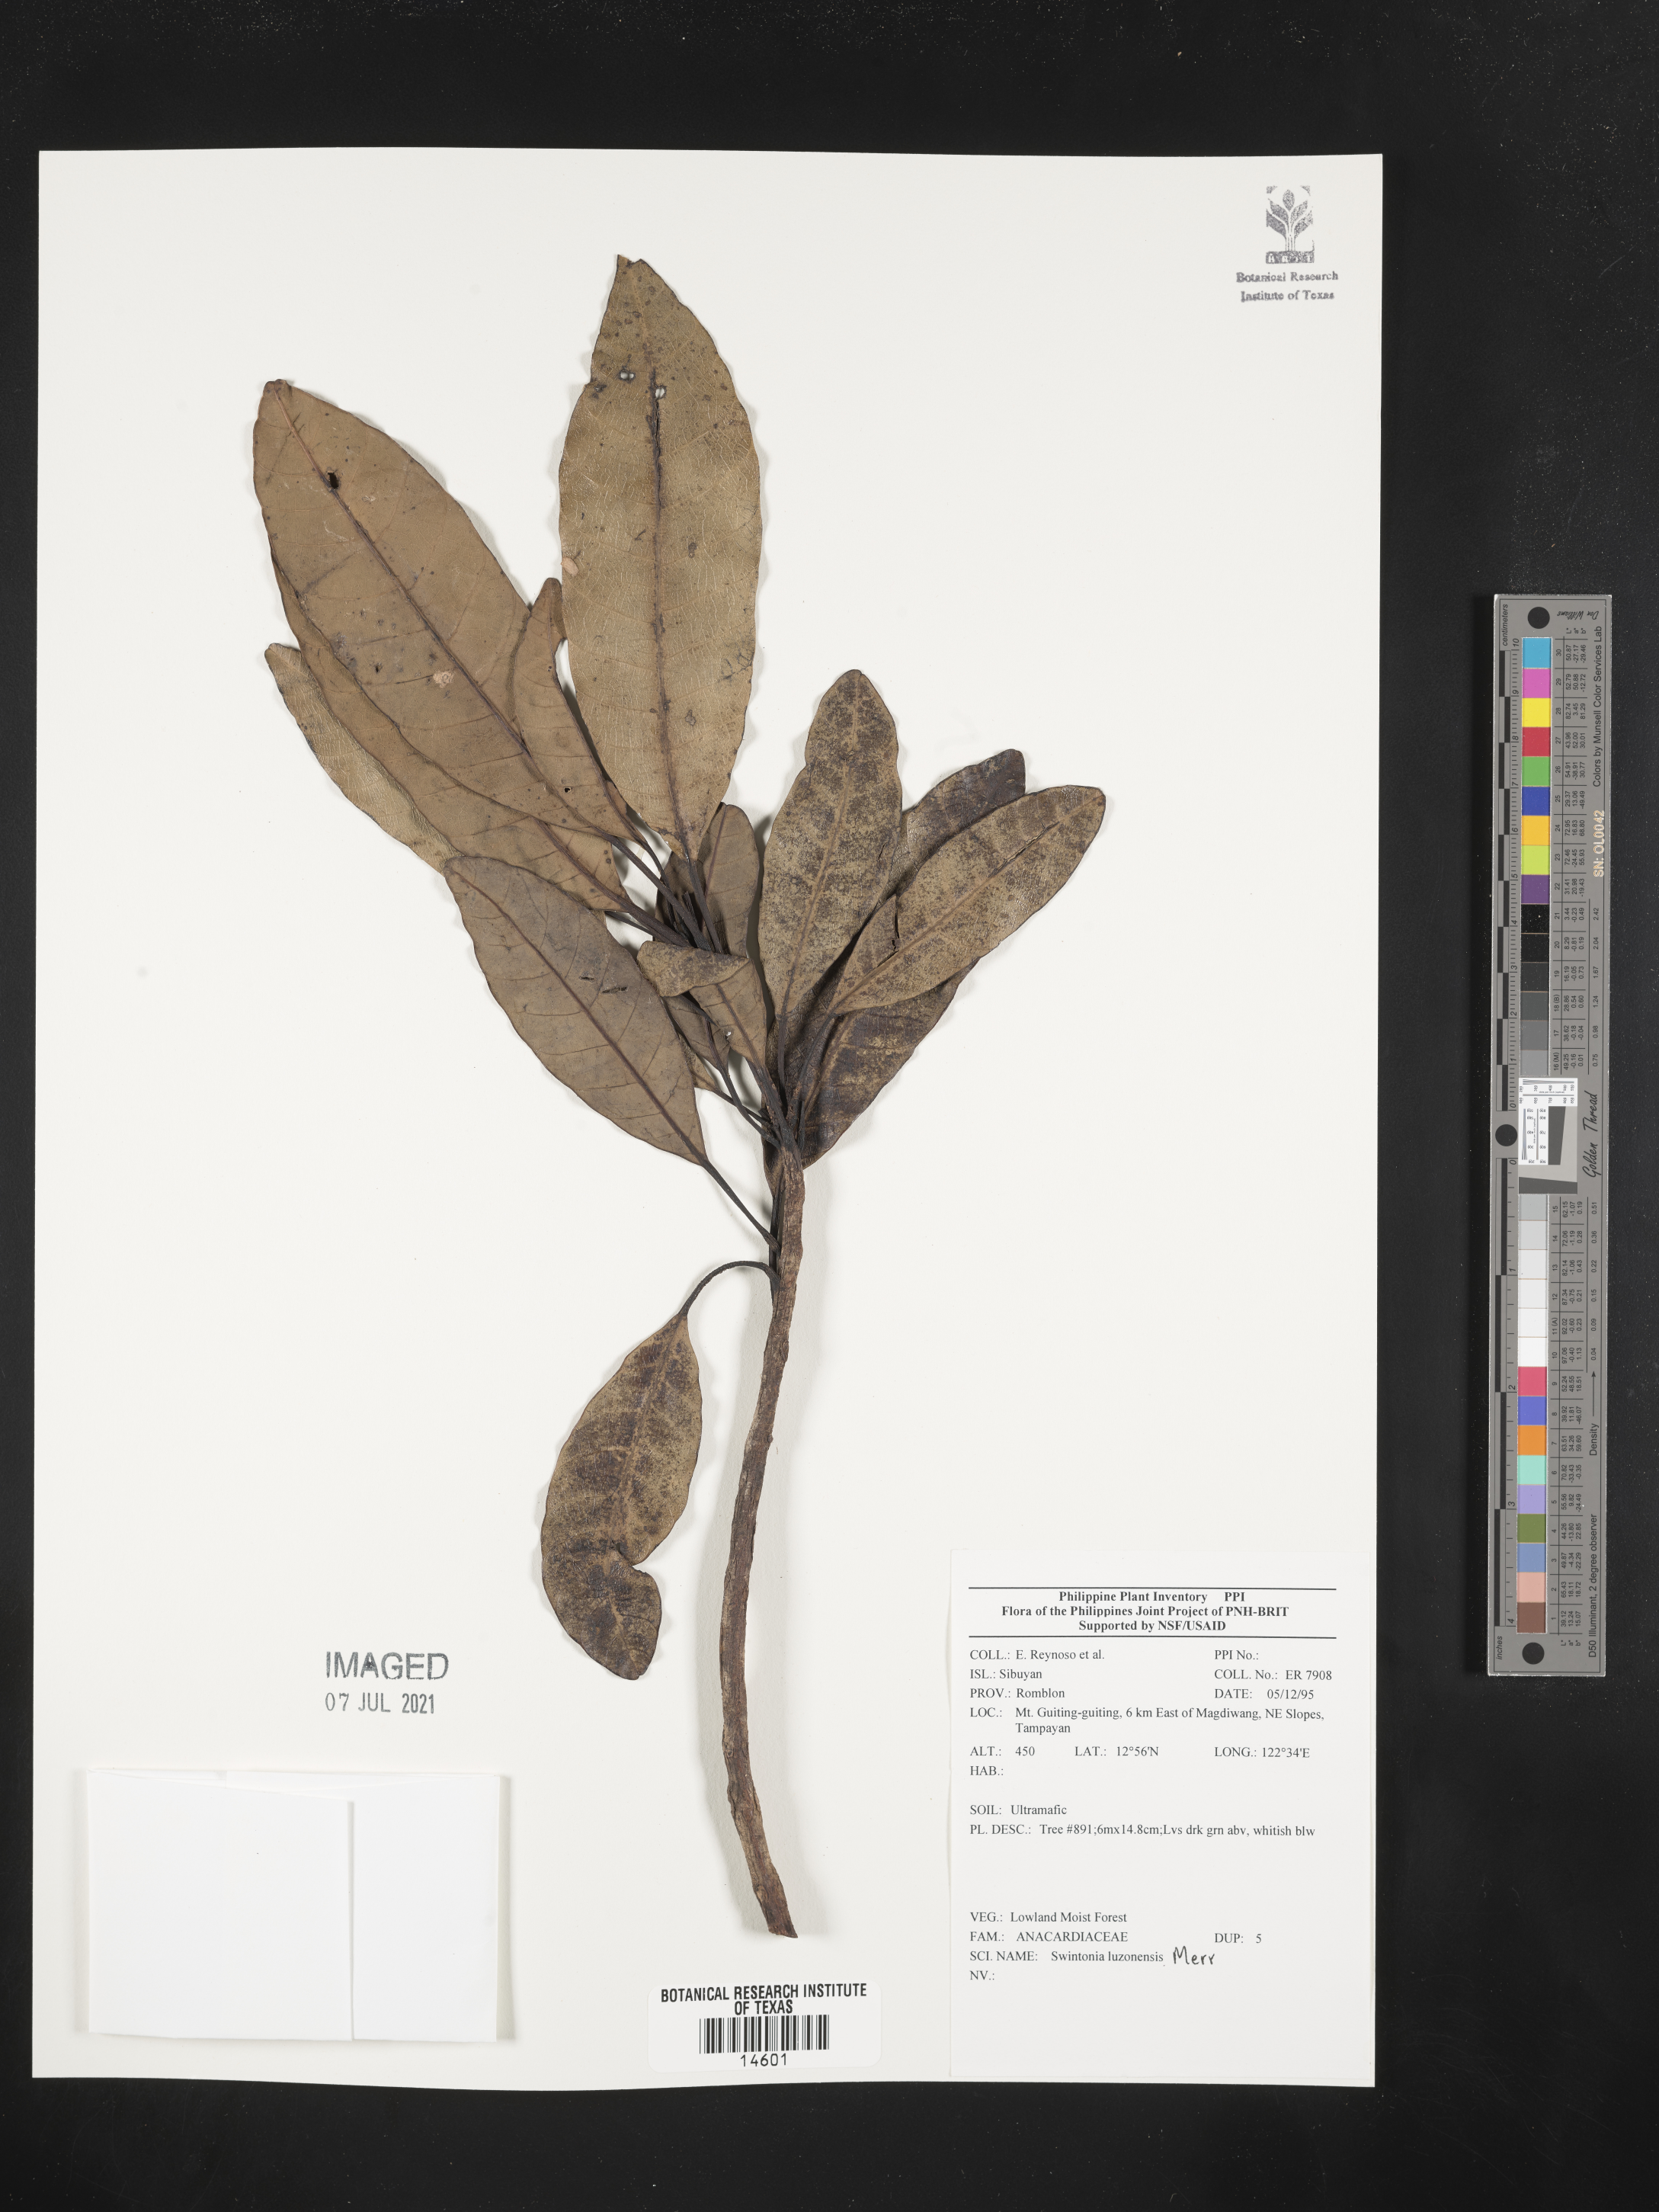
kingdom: Plantae
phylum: Tracheophyta
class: Magnoliopsida
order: Sapindales
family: Anacardiaceae
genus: Swintonia
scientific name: Swintonia acuta
